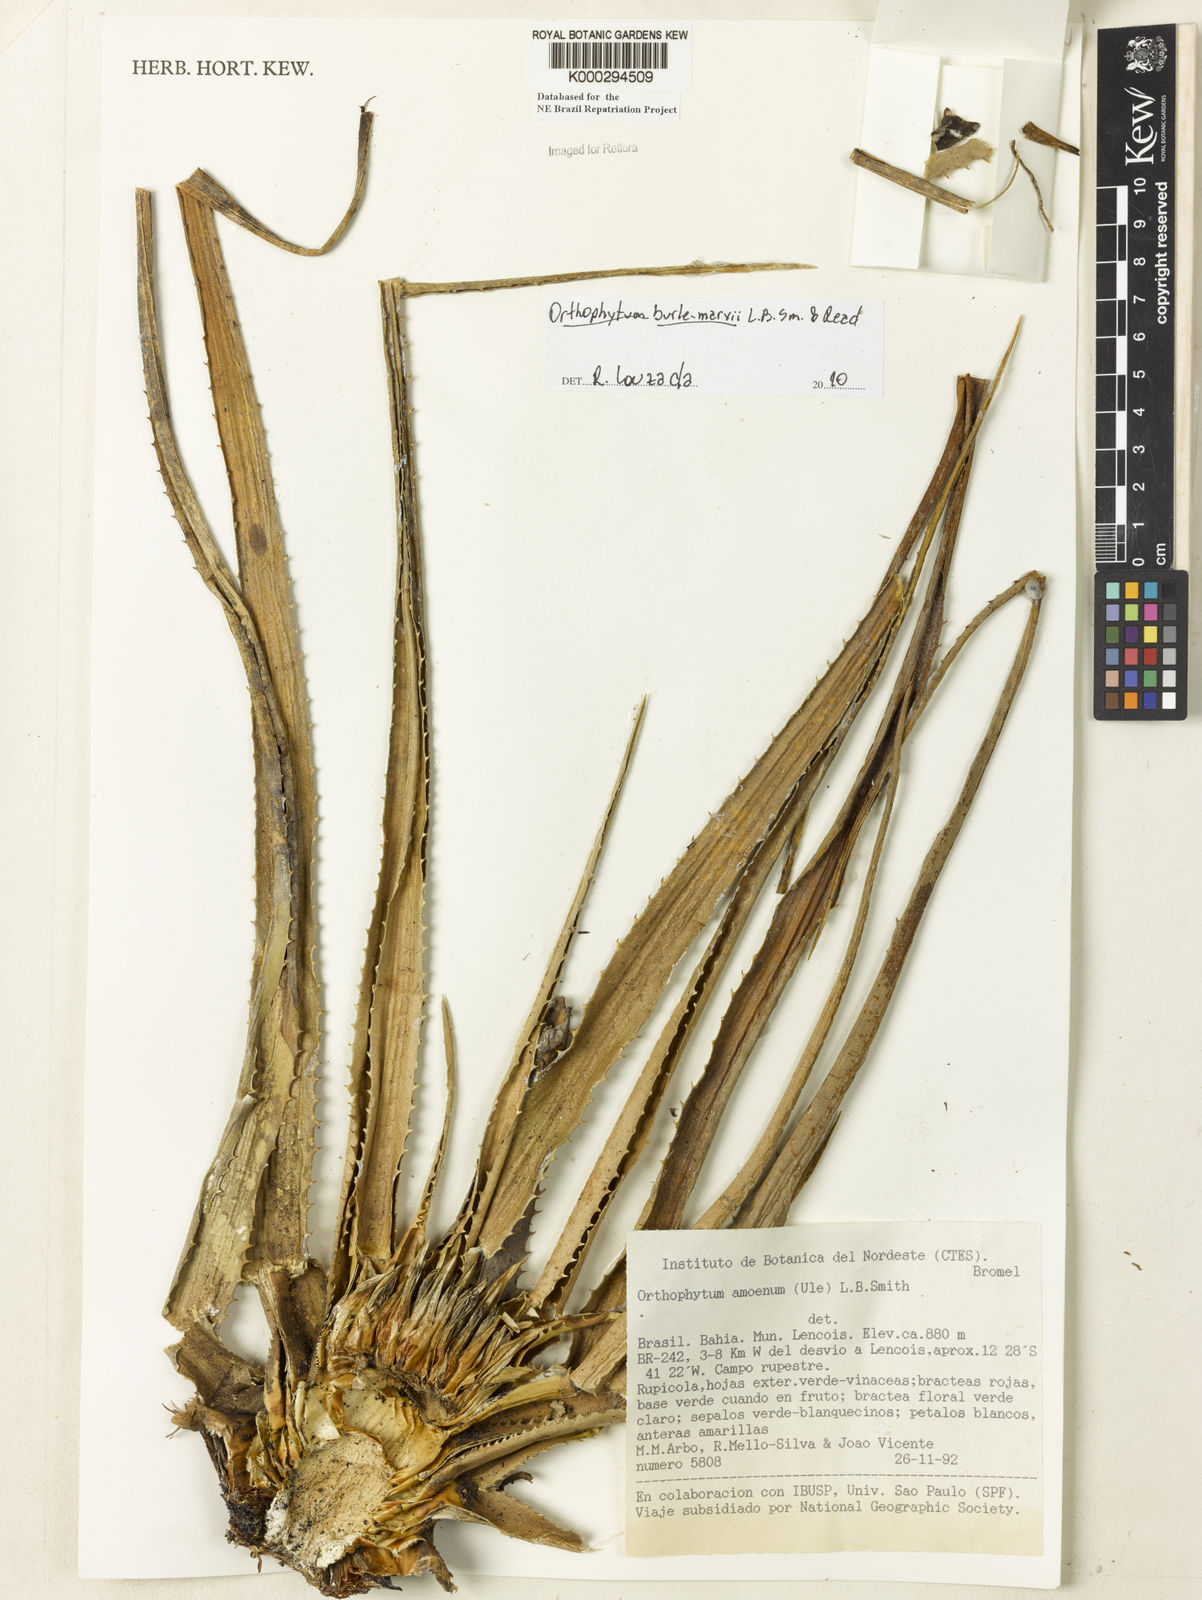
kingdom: Plantae
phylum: Tracheophyta
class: Liliopsida
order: Poales
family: Bromeliaceae
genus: Sincoraea
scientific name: Sincoraea amoena
